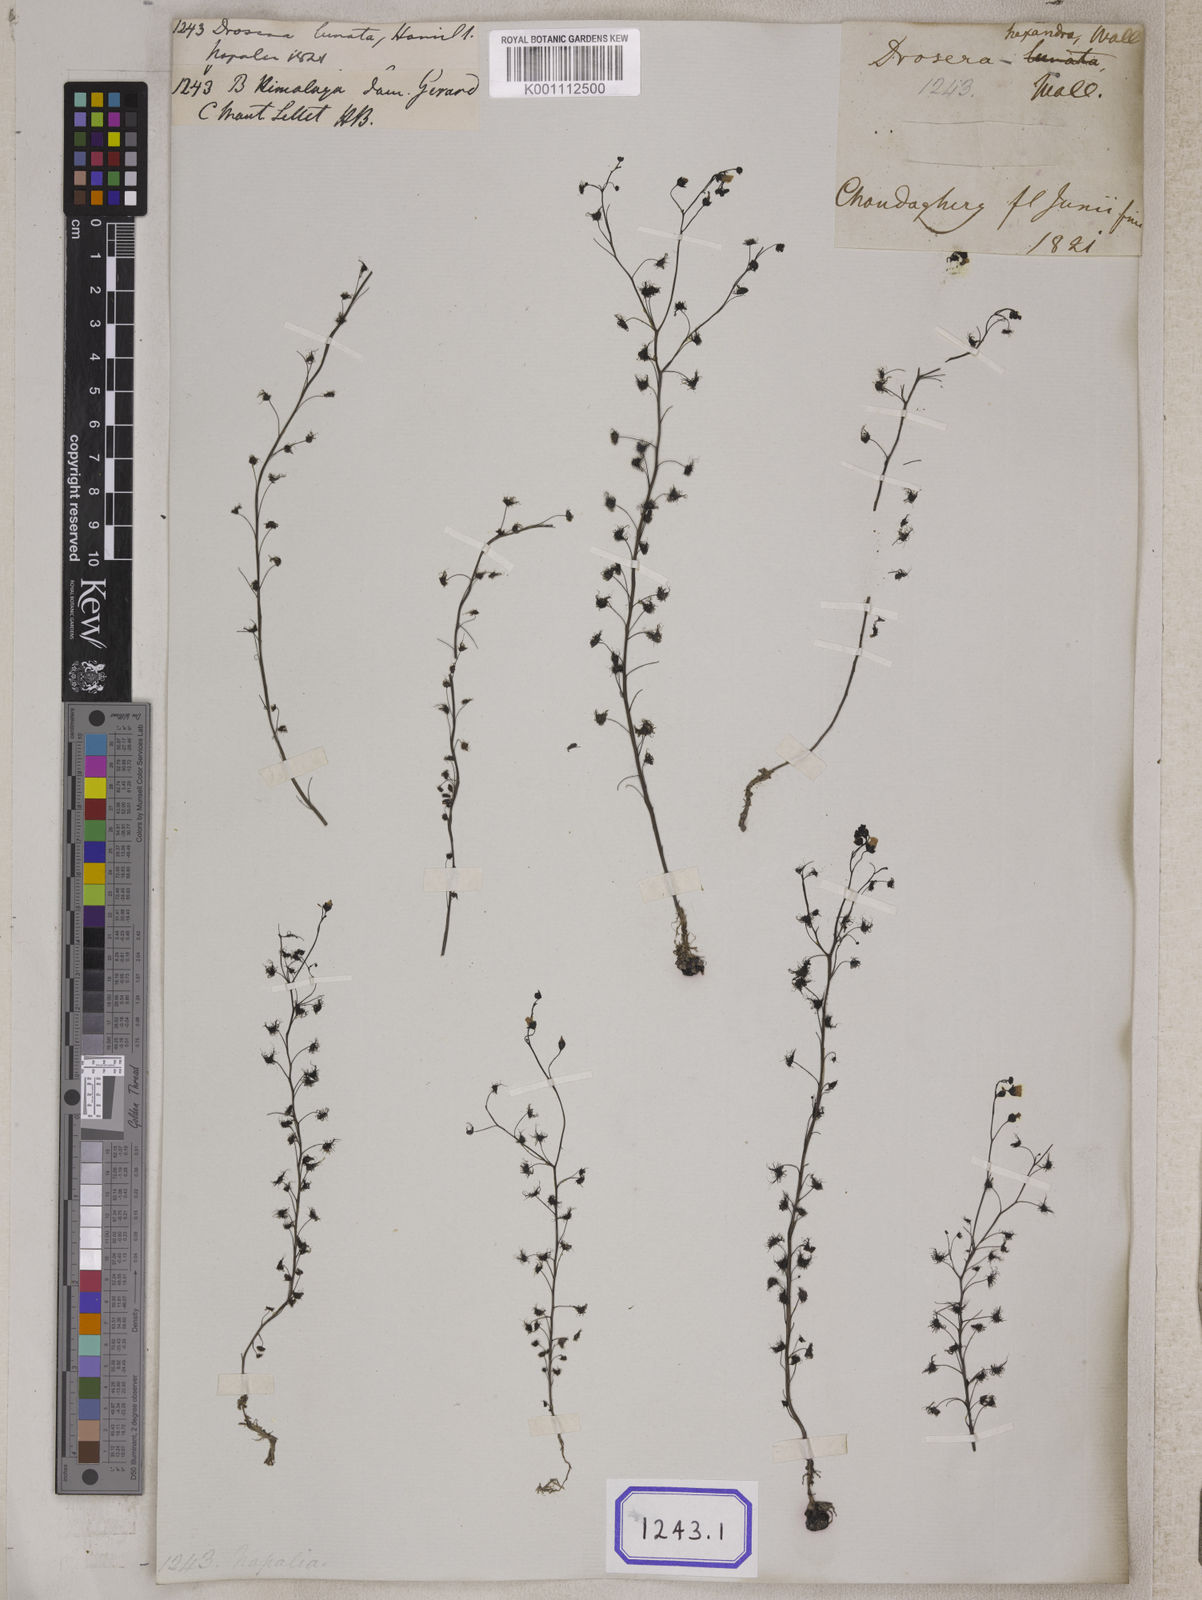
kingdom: Plantae
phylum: Tracheophyta
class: Magnoliopsida
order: Caryophyllales
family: Droseraceae
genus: Drosera
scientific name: Drosera
